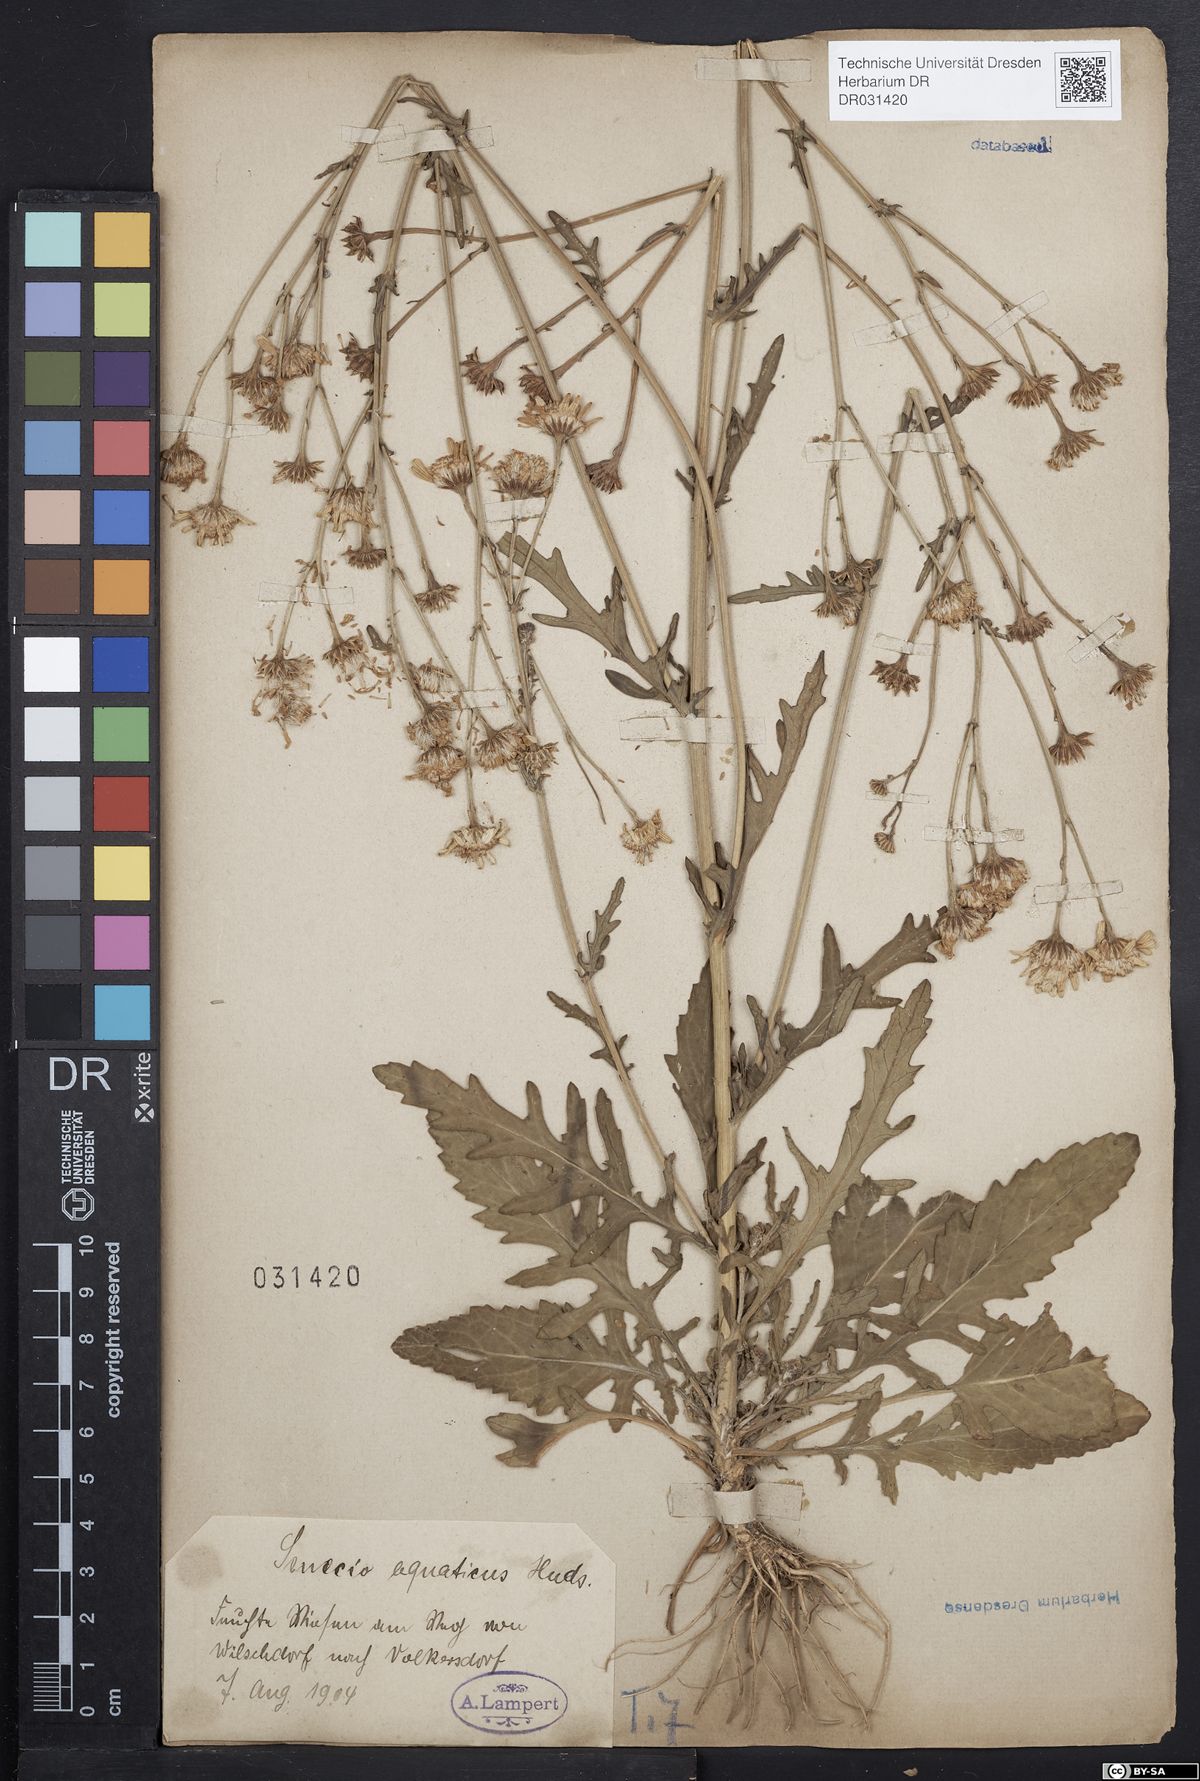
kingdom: Plantae
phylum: Tracheophyta
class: Magnoliopsida
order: Asterales
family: Asteraceae
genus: Jacobaea
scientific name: Jacobaea aquatica
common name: Water ragwort
